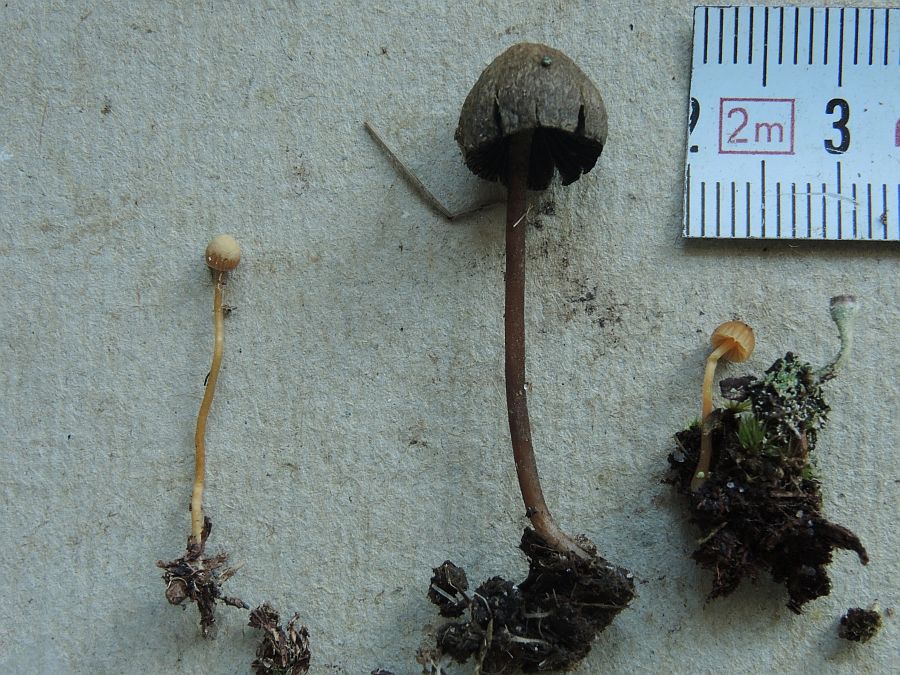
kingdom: Fungi
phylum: Basidiomycota
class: Agaricomycetes
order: Agaricales
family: Hymenogastraceae
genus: Galerina
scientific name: Galerina hypnorum
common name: mos-hjelmhat
